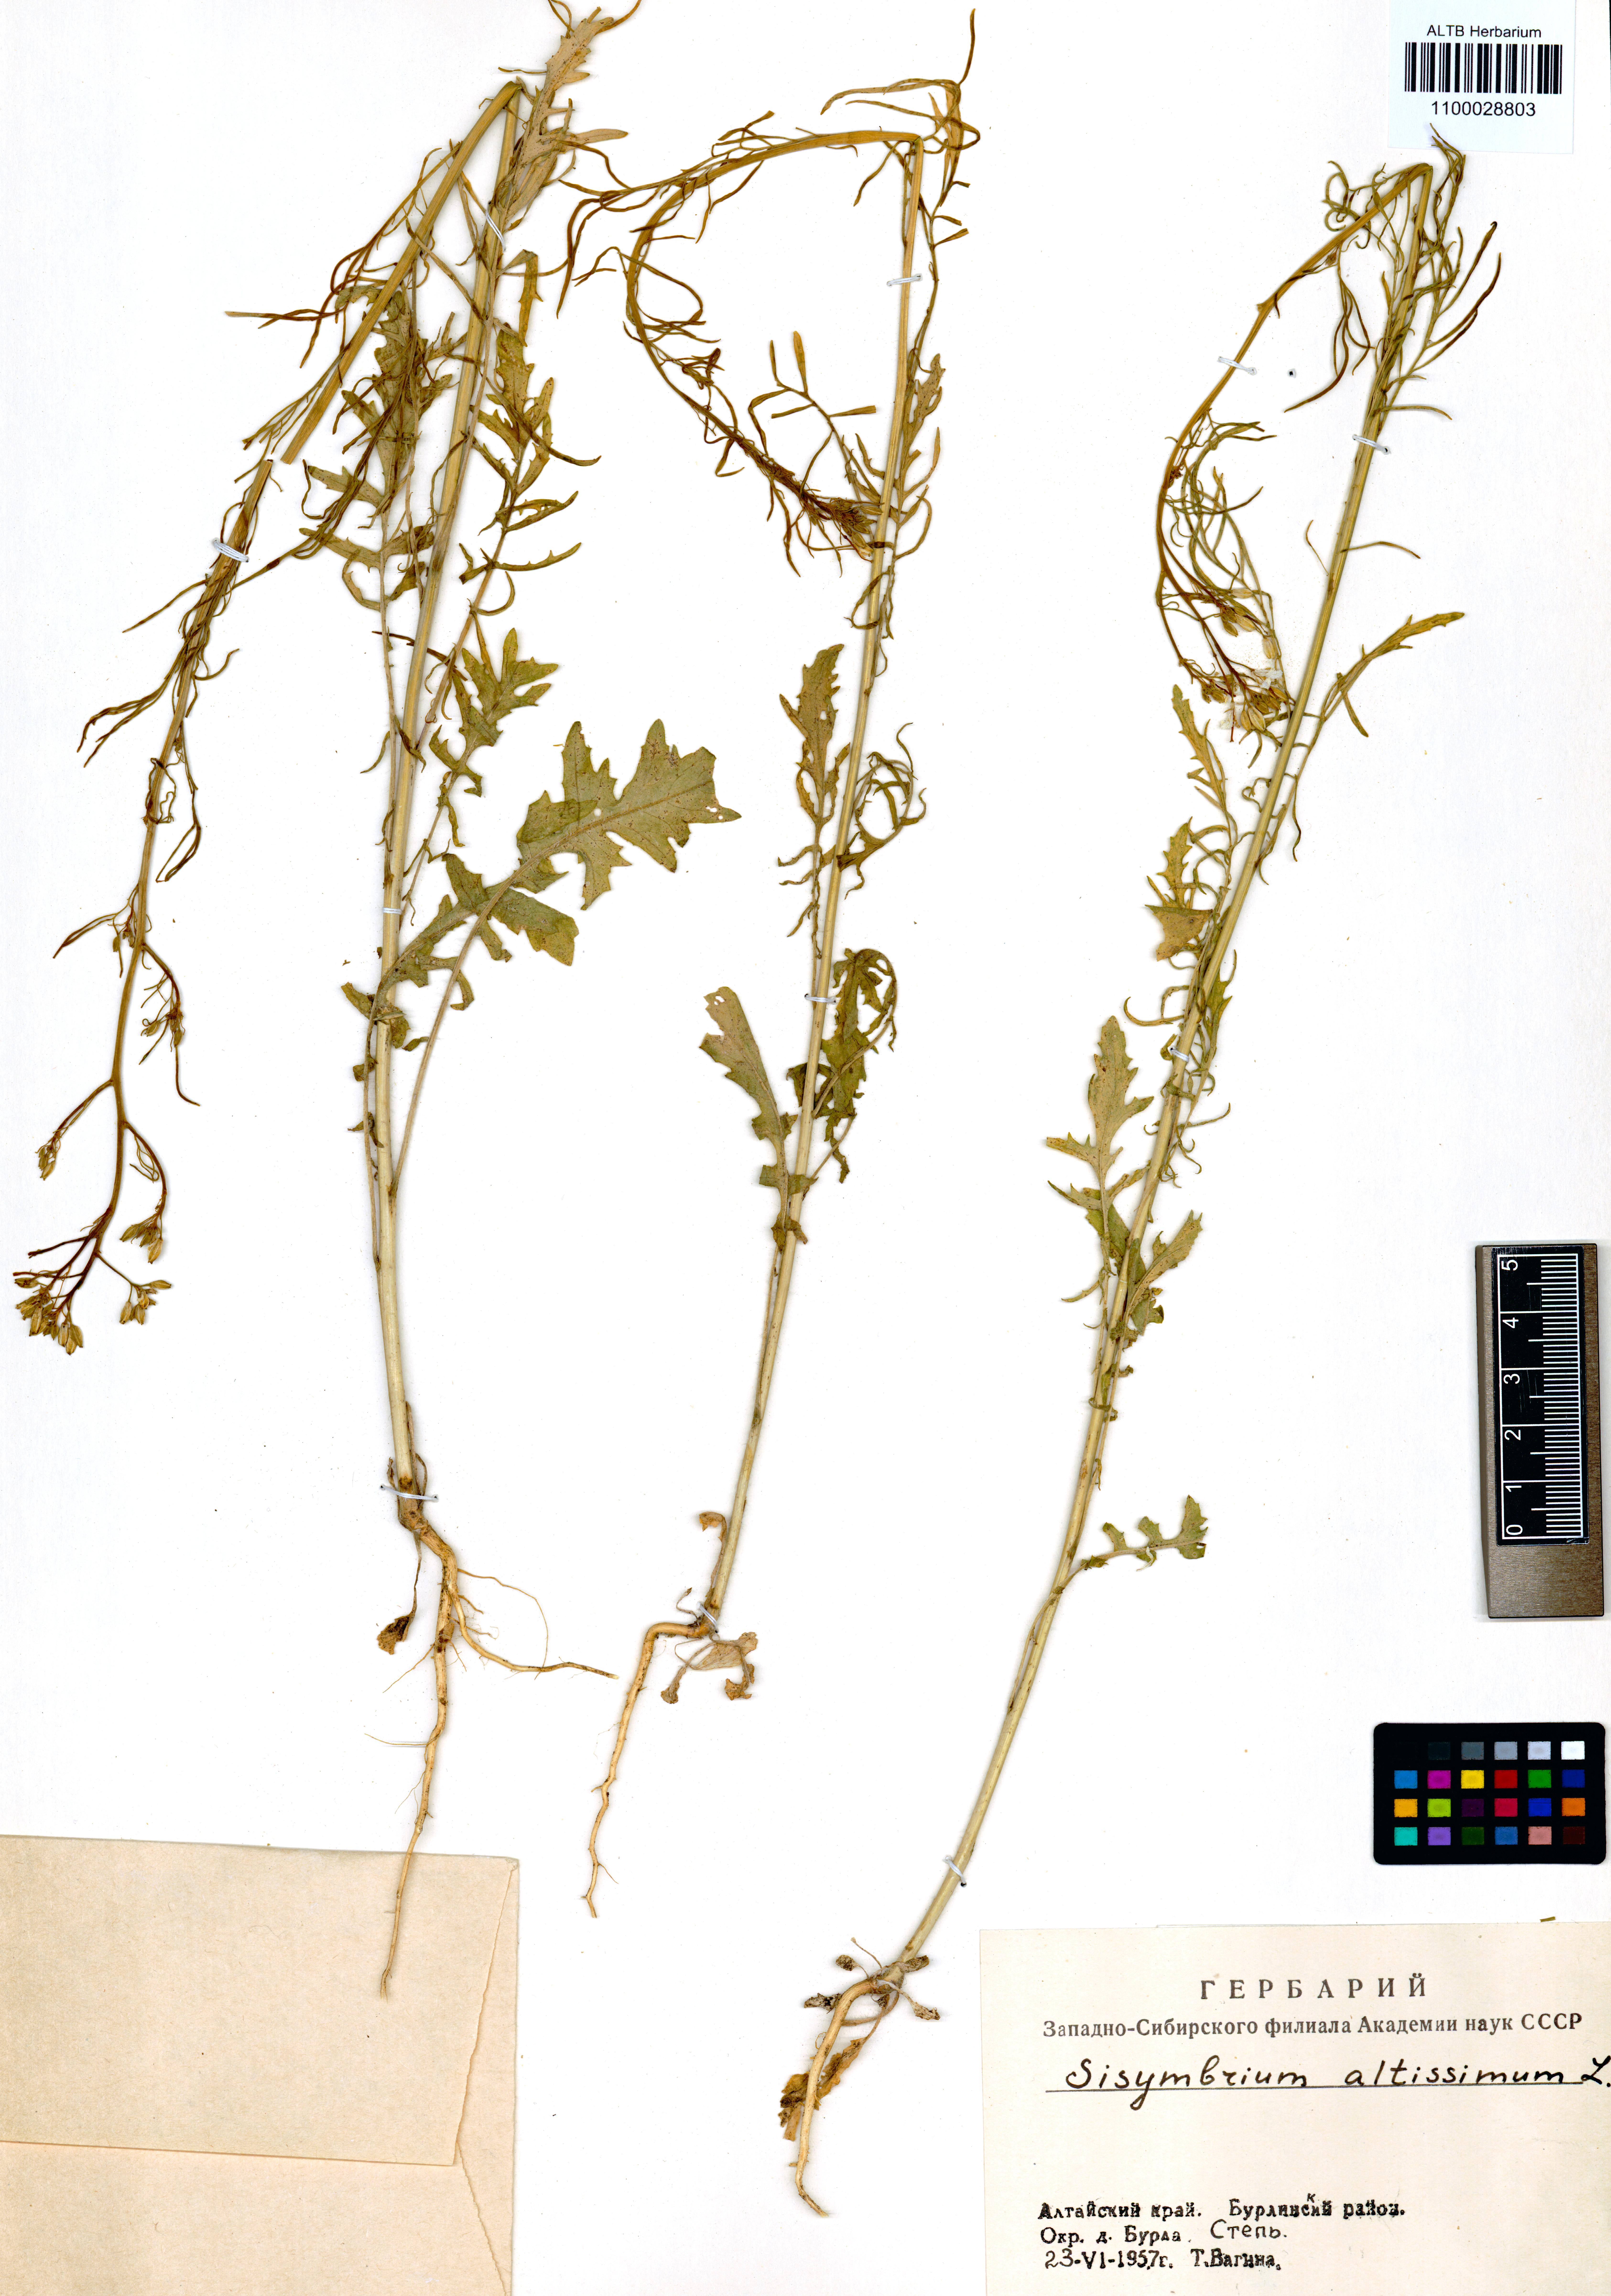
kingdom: Plantae
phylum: Tracheophyta
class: Magnoliopsida
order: Brassicales
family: Brassicaceae
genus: Sisymbrium
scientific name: Sisymbrium altissimum
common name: Tall rocket
